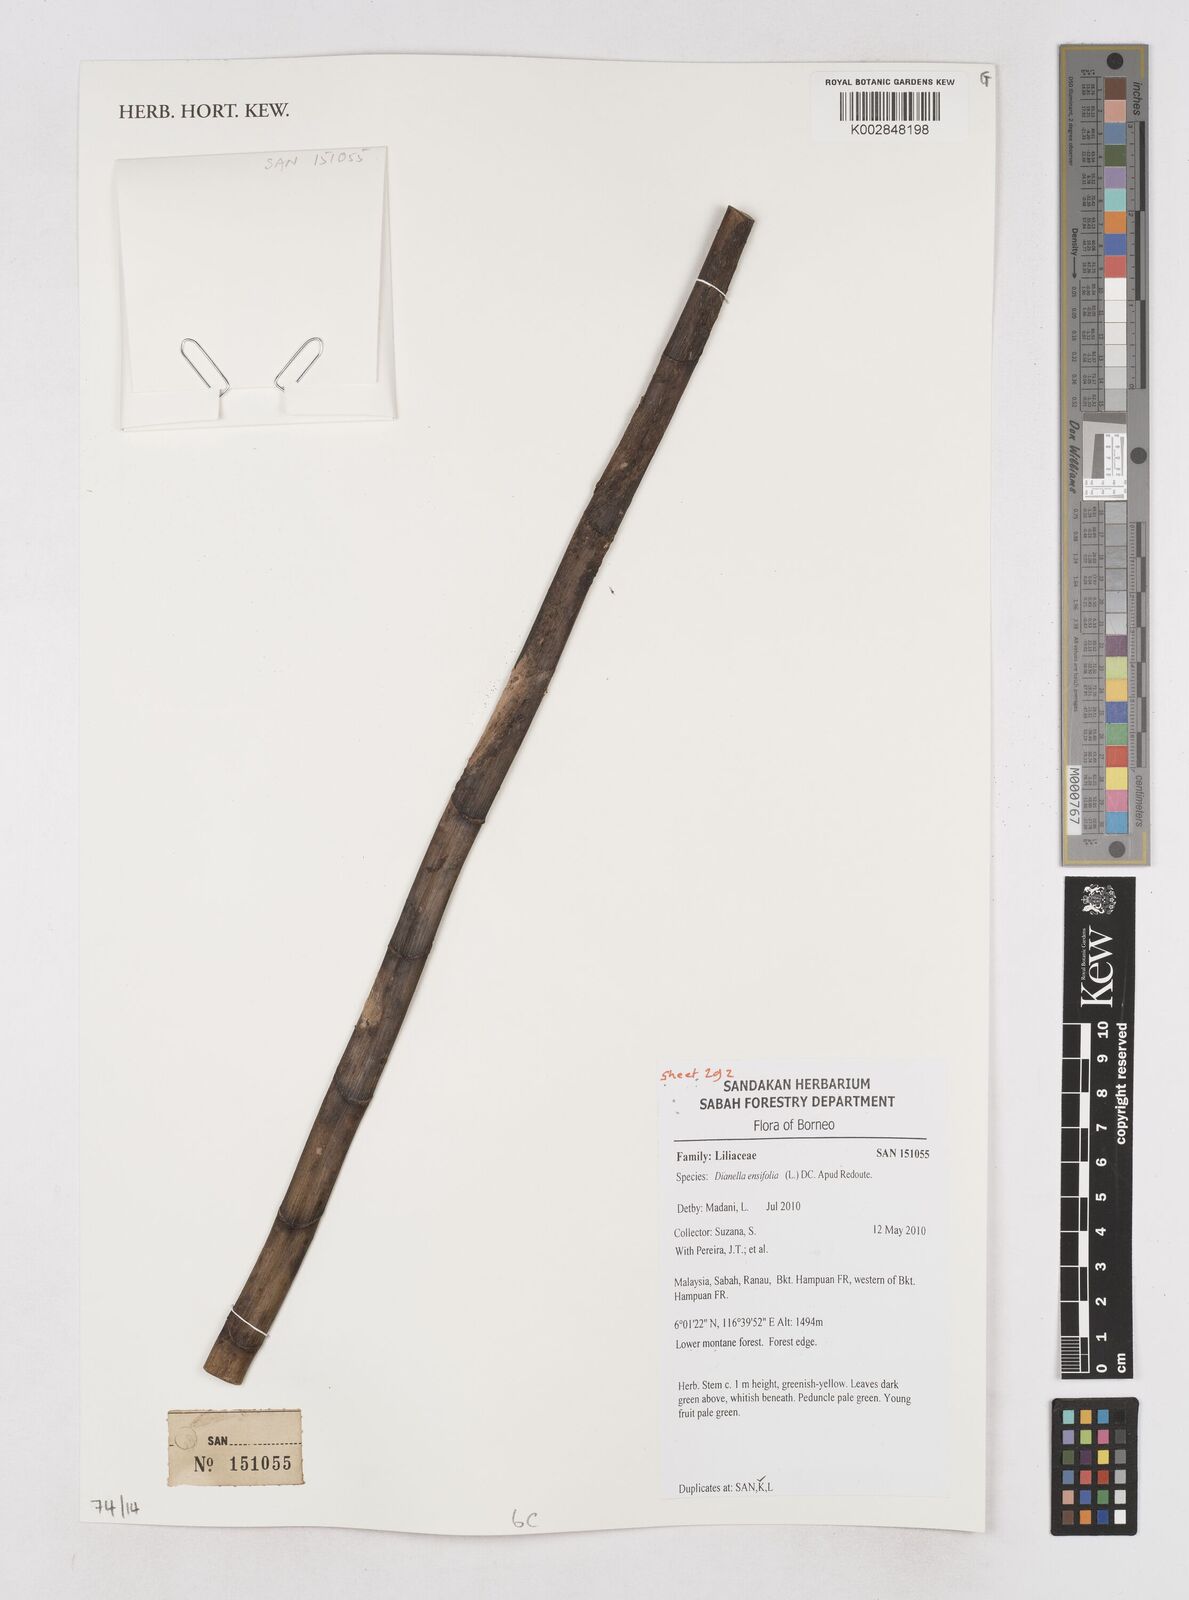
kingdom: Plantae
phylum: Tracheophyta
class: Liliopsida
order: Asparagales
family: Asphodelaceae
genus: Dianella
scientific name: Dianella ensifolia
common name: New zealand lilyplant
